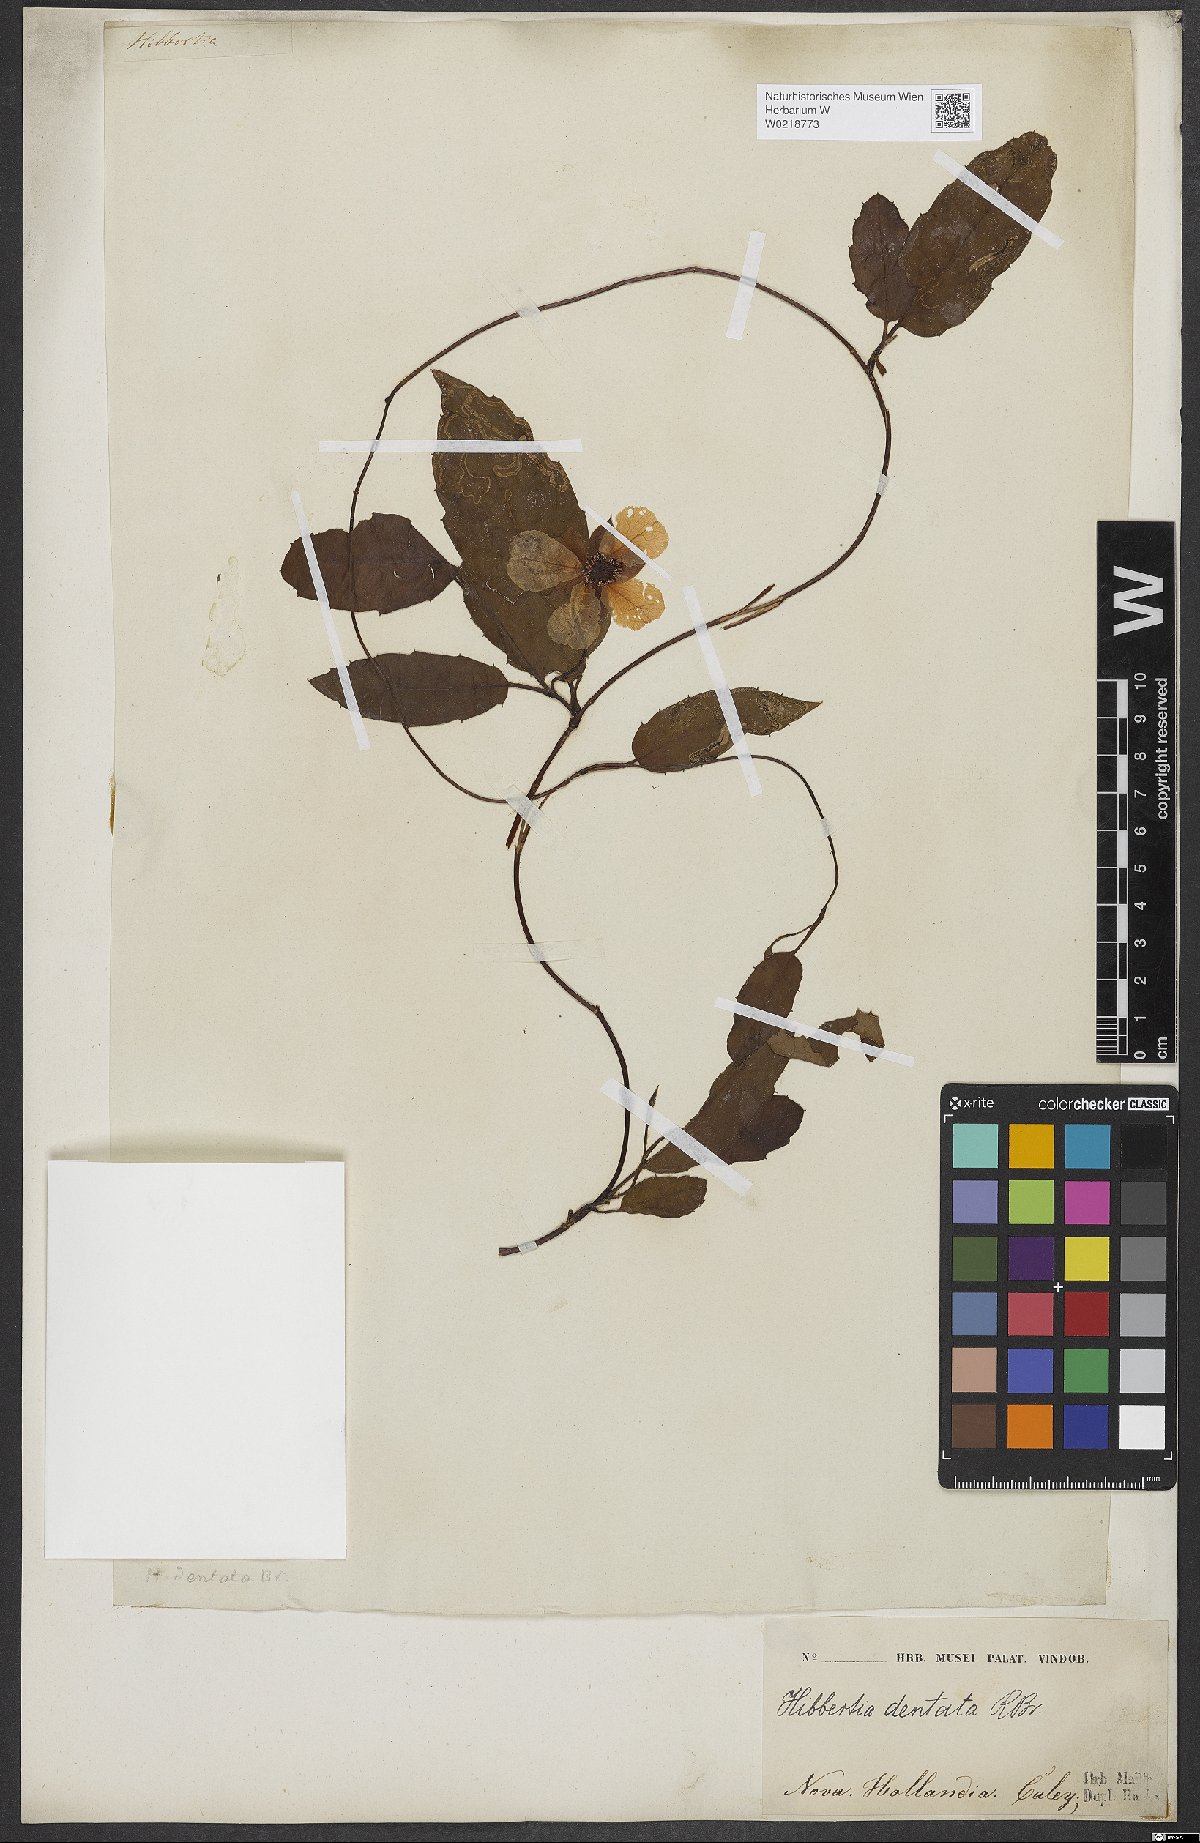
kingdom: Plantae
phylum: Tracheophyta
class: Magnoliopsida
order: Dilleniales
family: Dilleniaceae
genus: Hibbertia
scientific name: Hibbertia dentata
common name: Trailing guinea-flower
